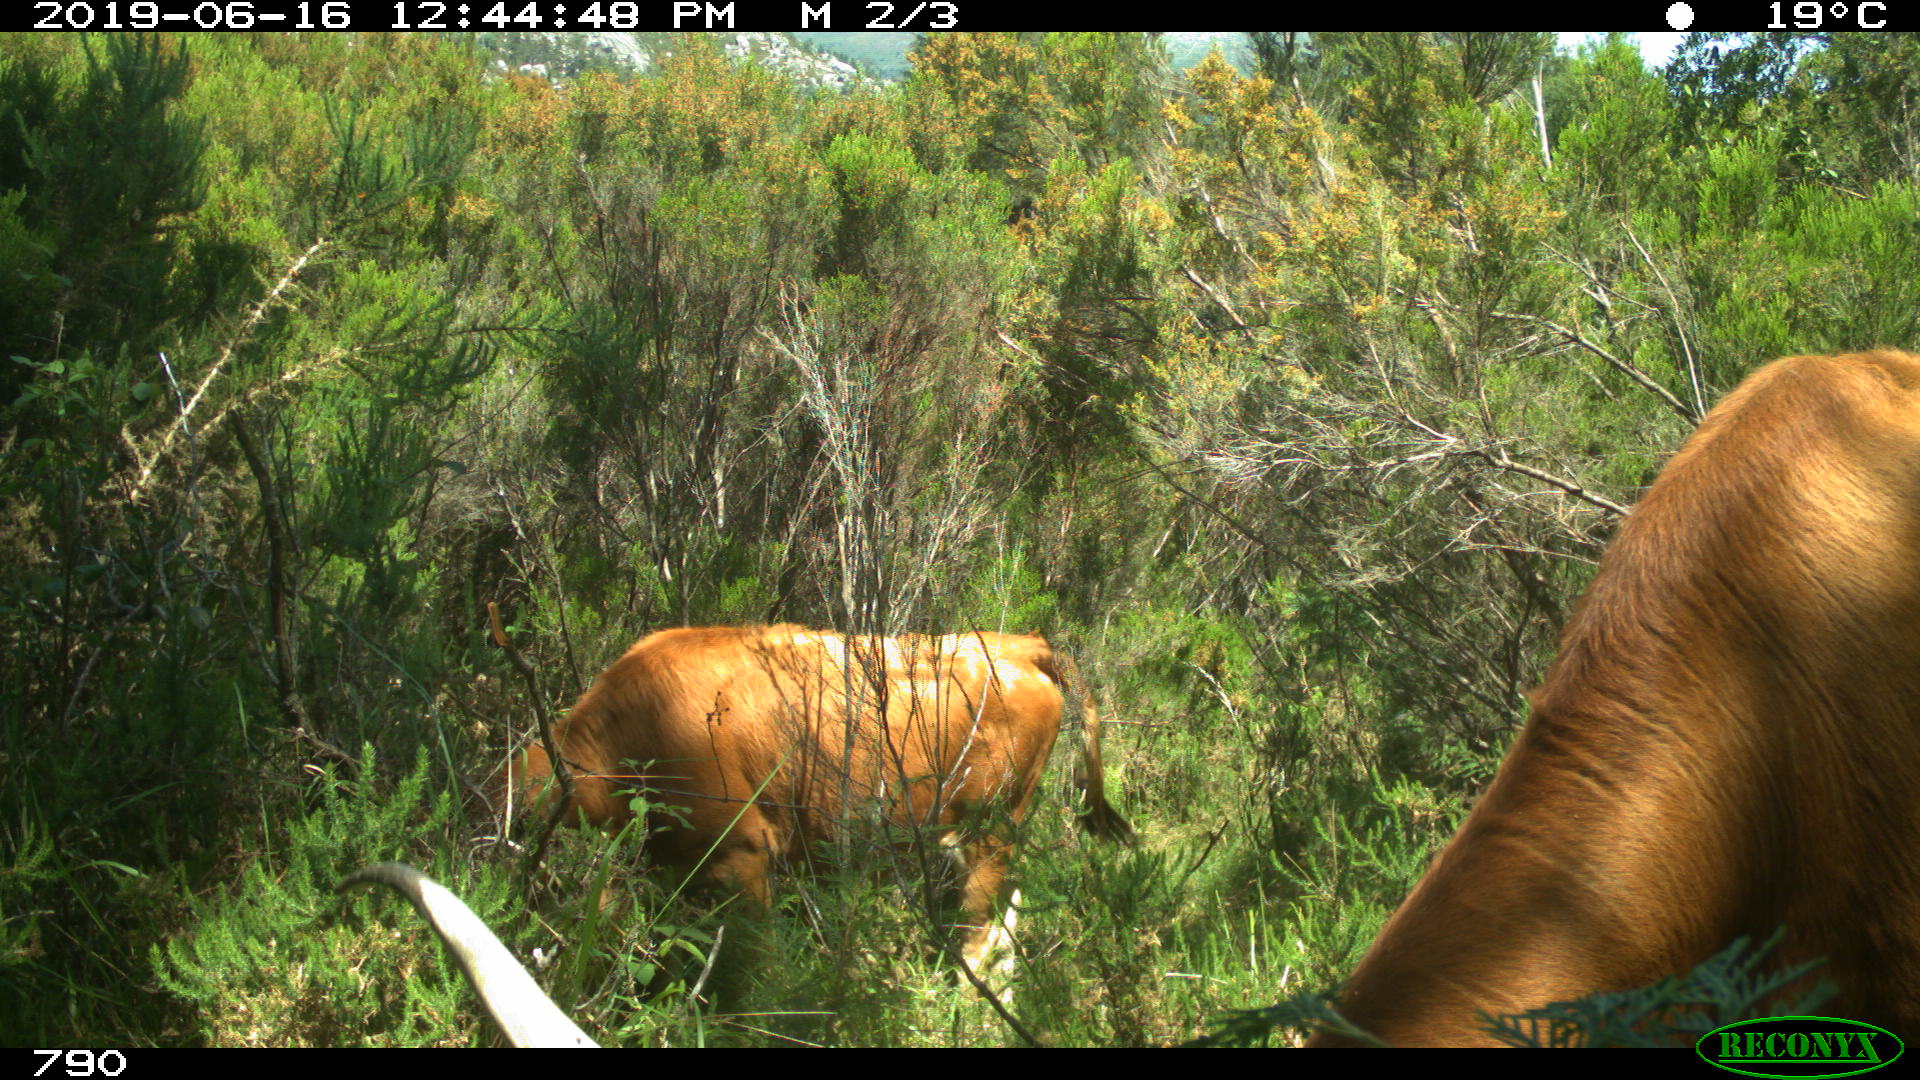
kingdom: Animalia
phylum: Chordata
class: Mammalia
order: Artiodactyla
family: Bovidae
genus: Bos
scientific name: Bos taurus
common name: Domesticated cattle
